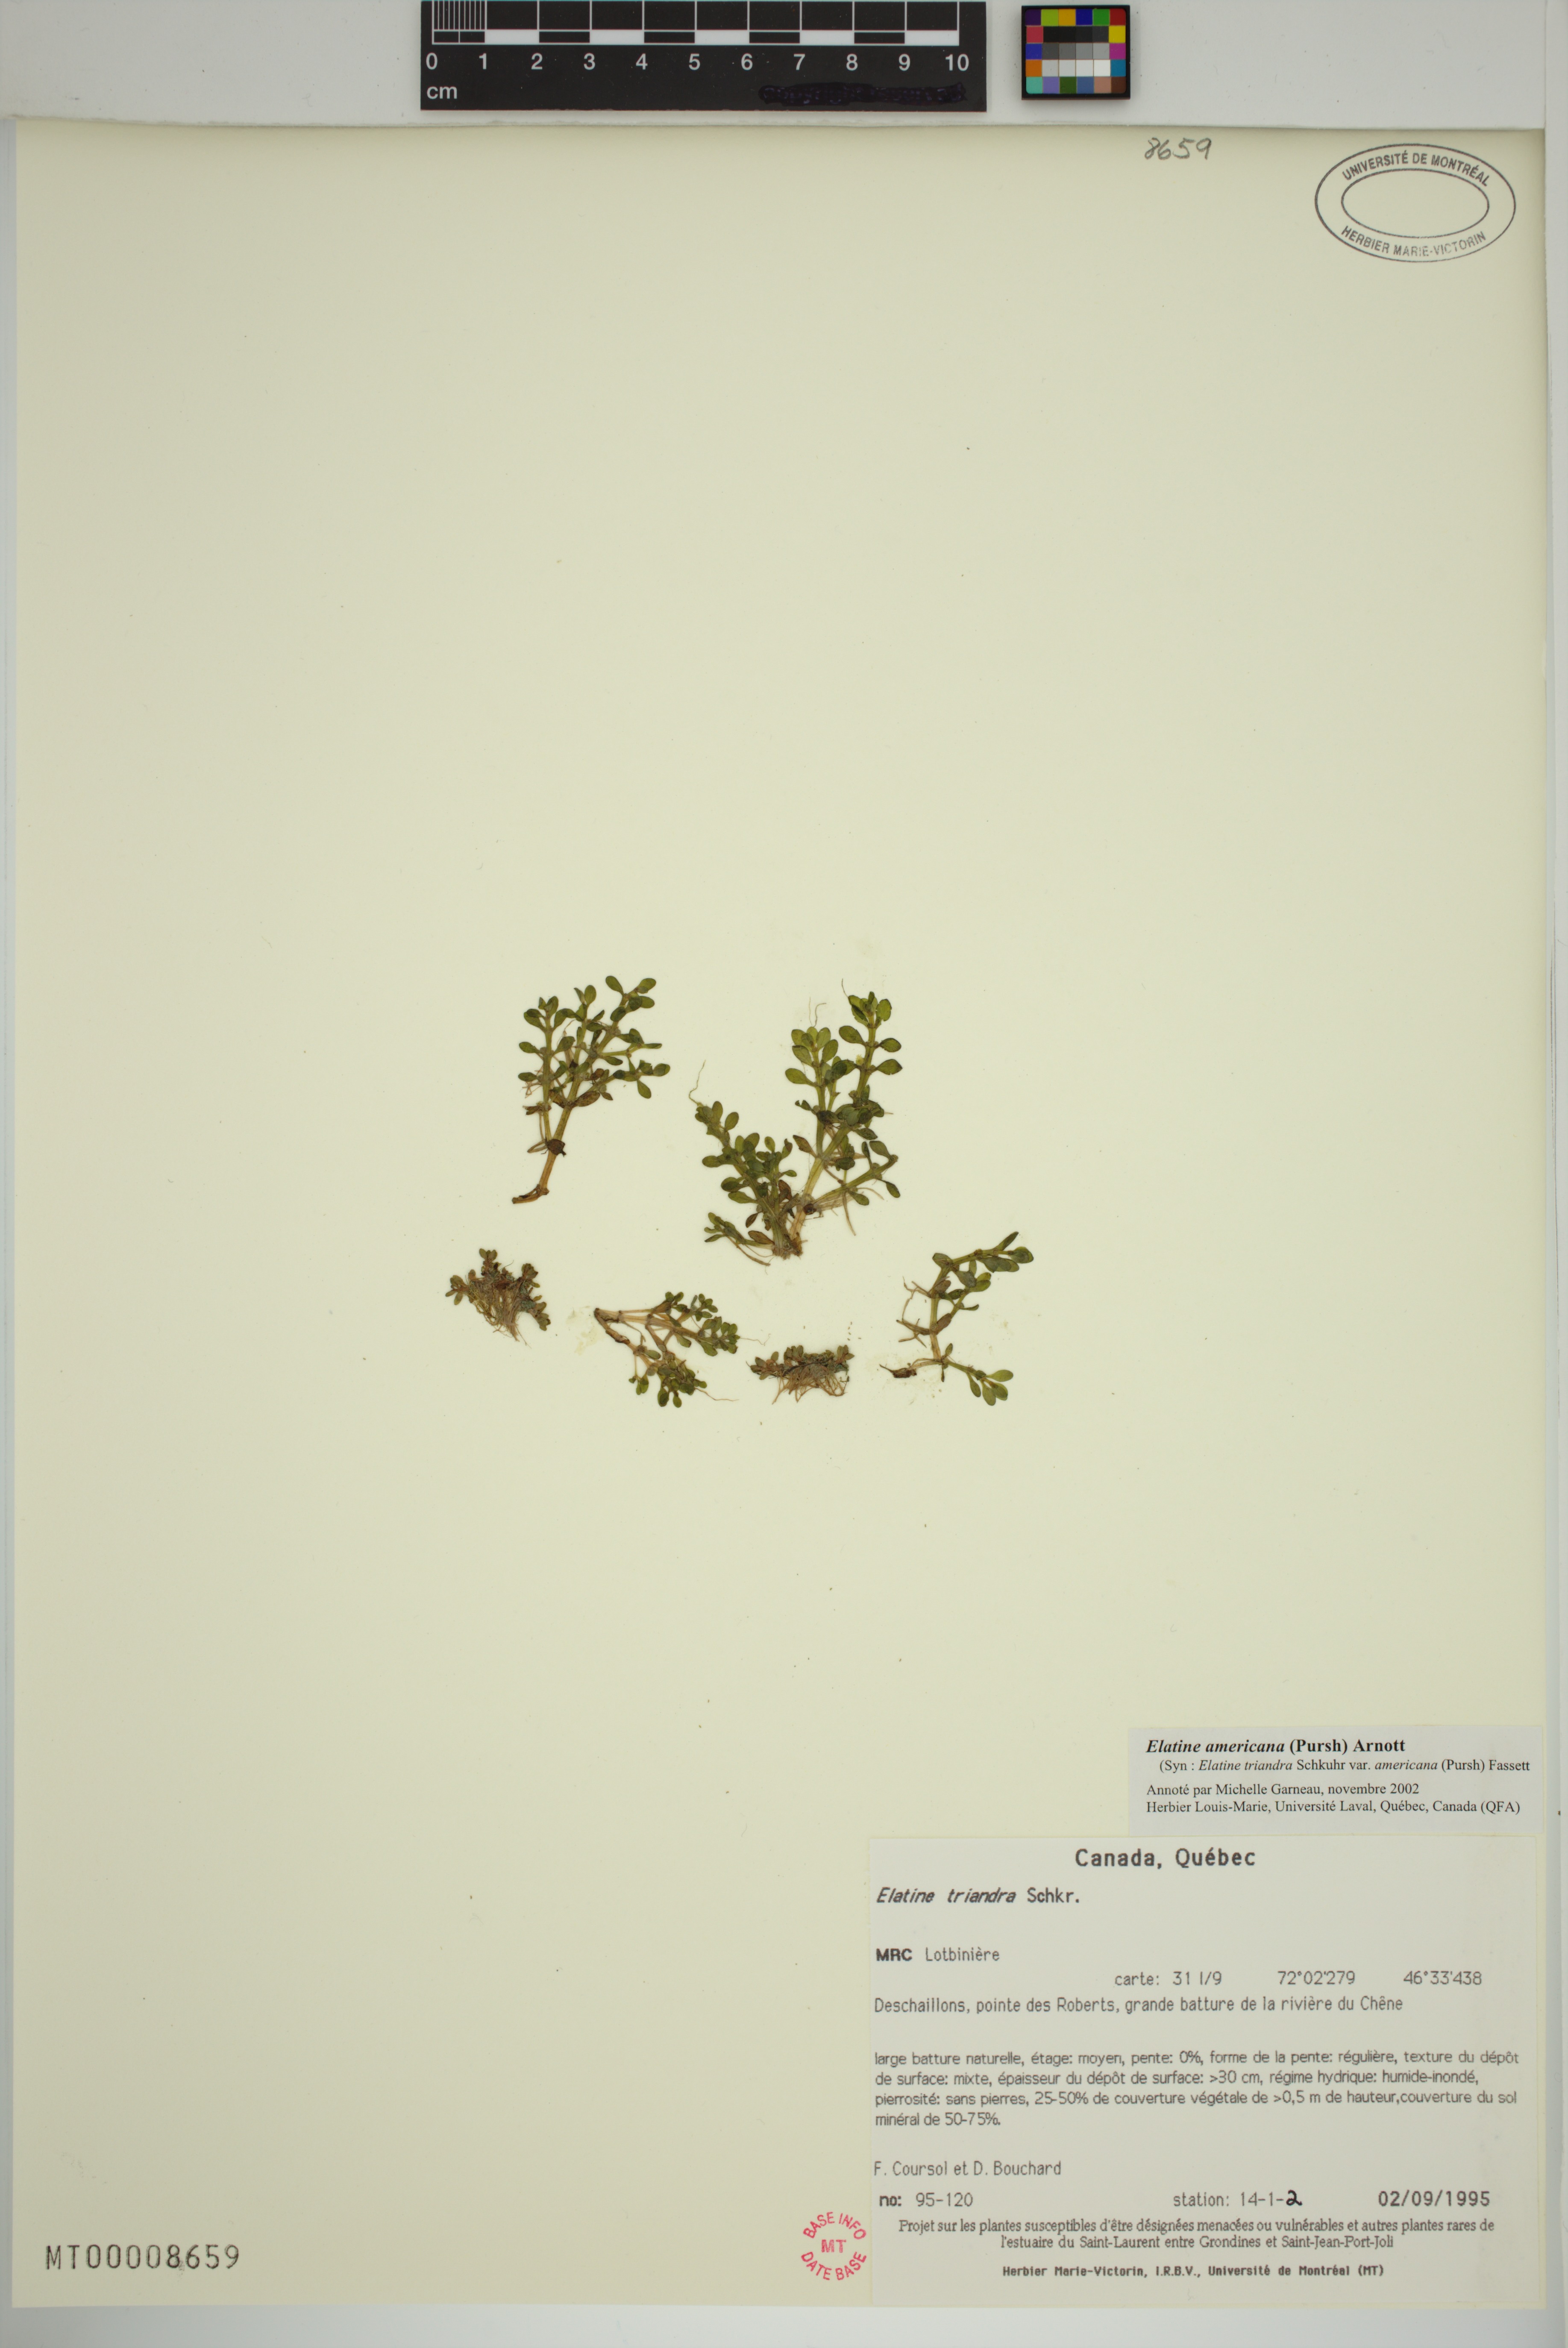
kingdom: Plantae
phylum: Tracheophyta
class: Magnoliopsida
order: Malpighiales
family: Elatinaceae
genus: Elatine
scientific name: Elatine americana
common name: American waterwort
